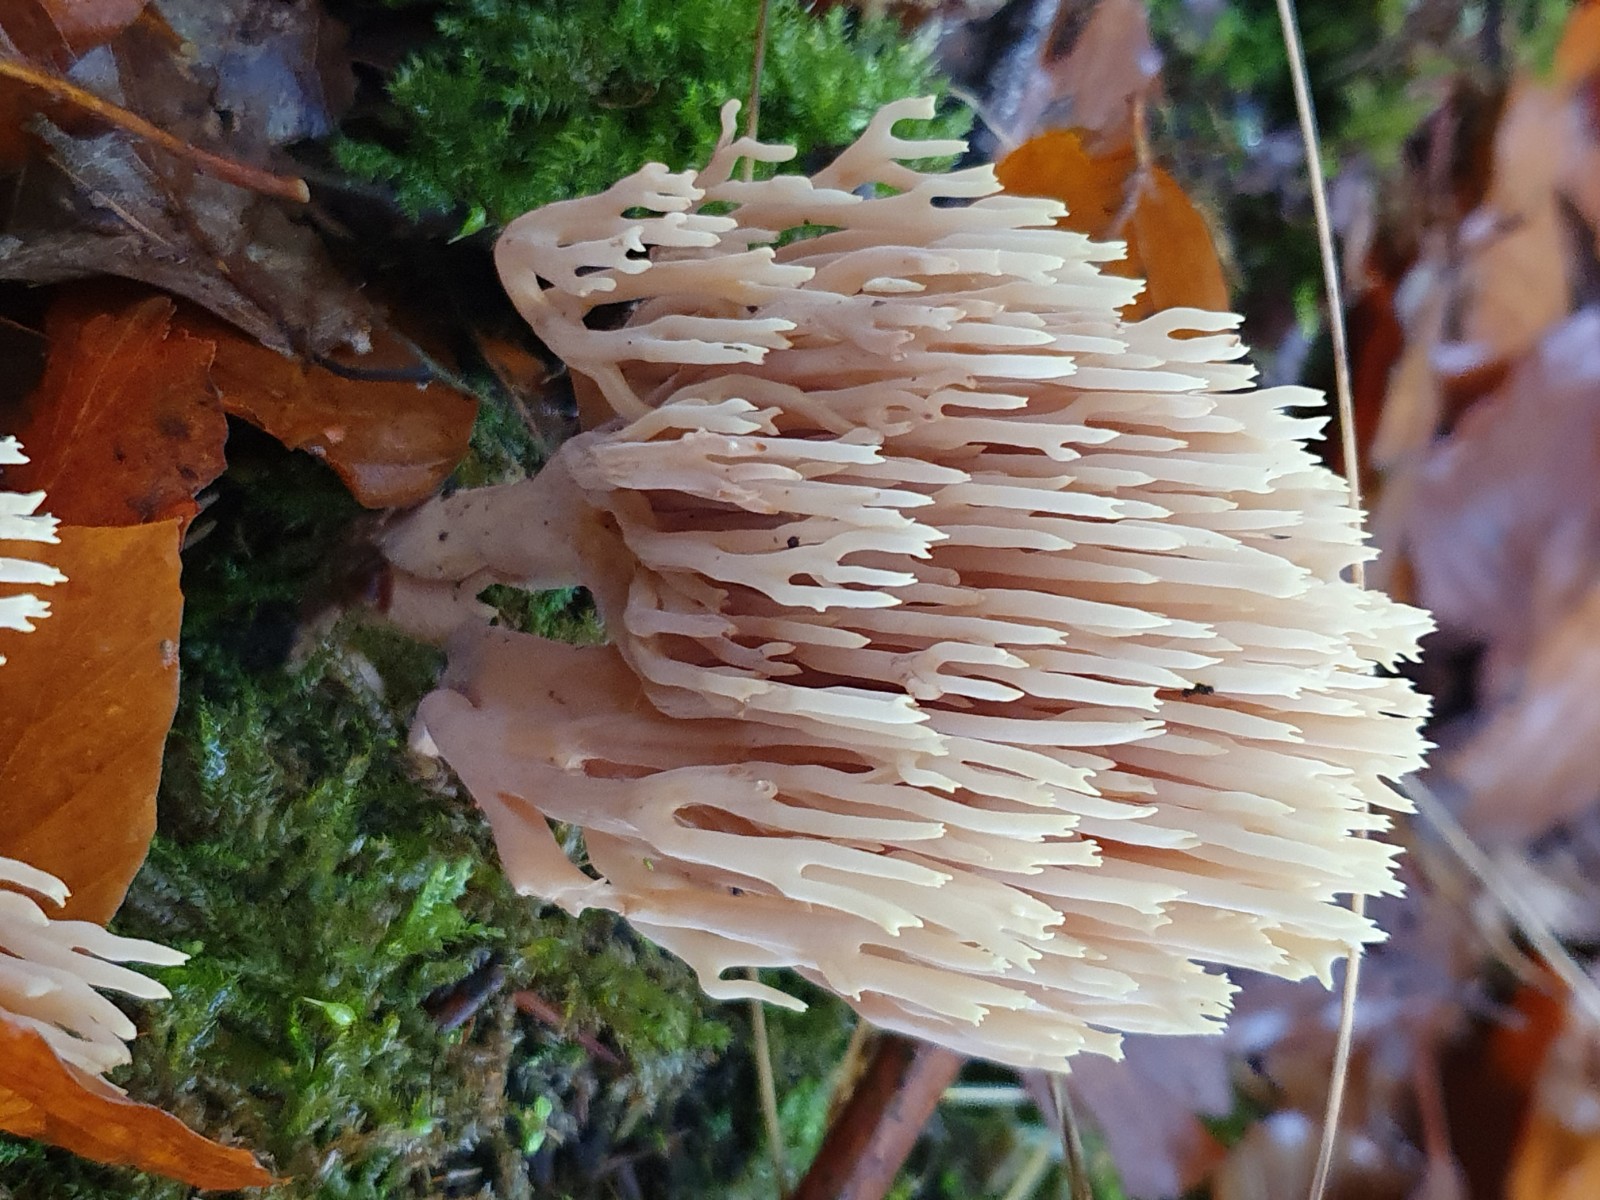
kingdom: Fungi
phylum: Basidiomycota
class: Agaricomycetes
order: Gomphales
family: Gomphaceae
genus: Ramaria
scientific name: Ramaria stricta
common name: rank koralsvamp
